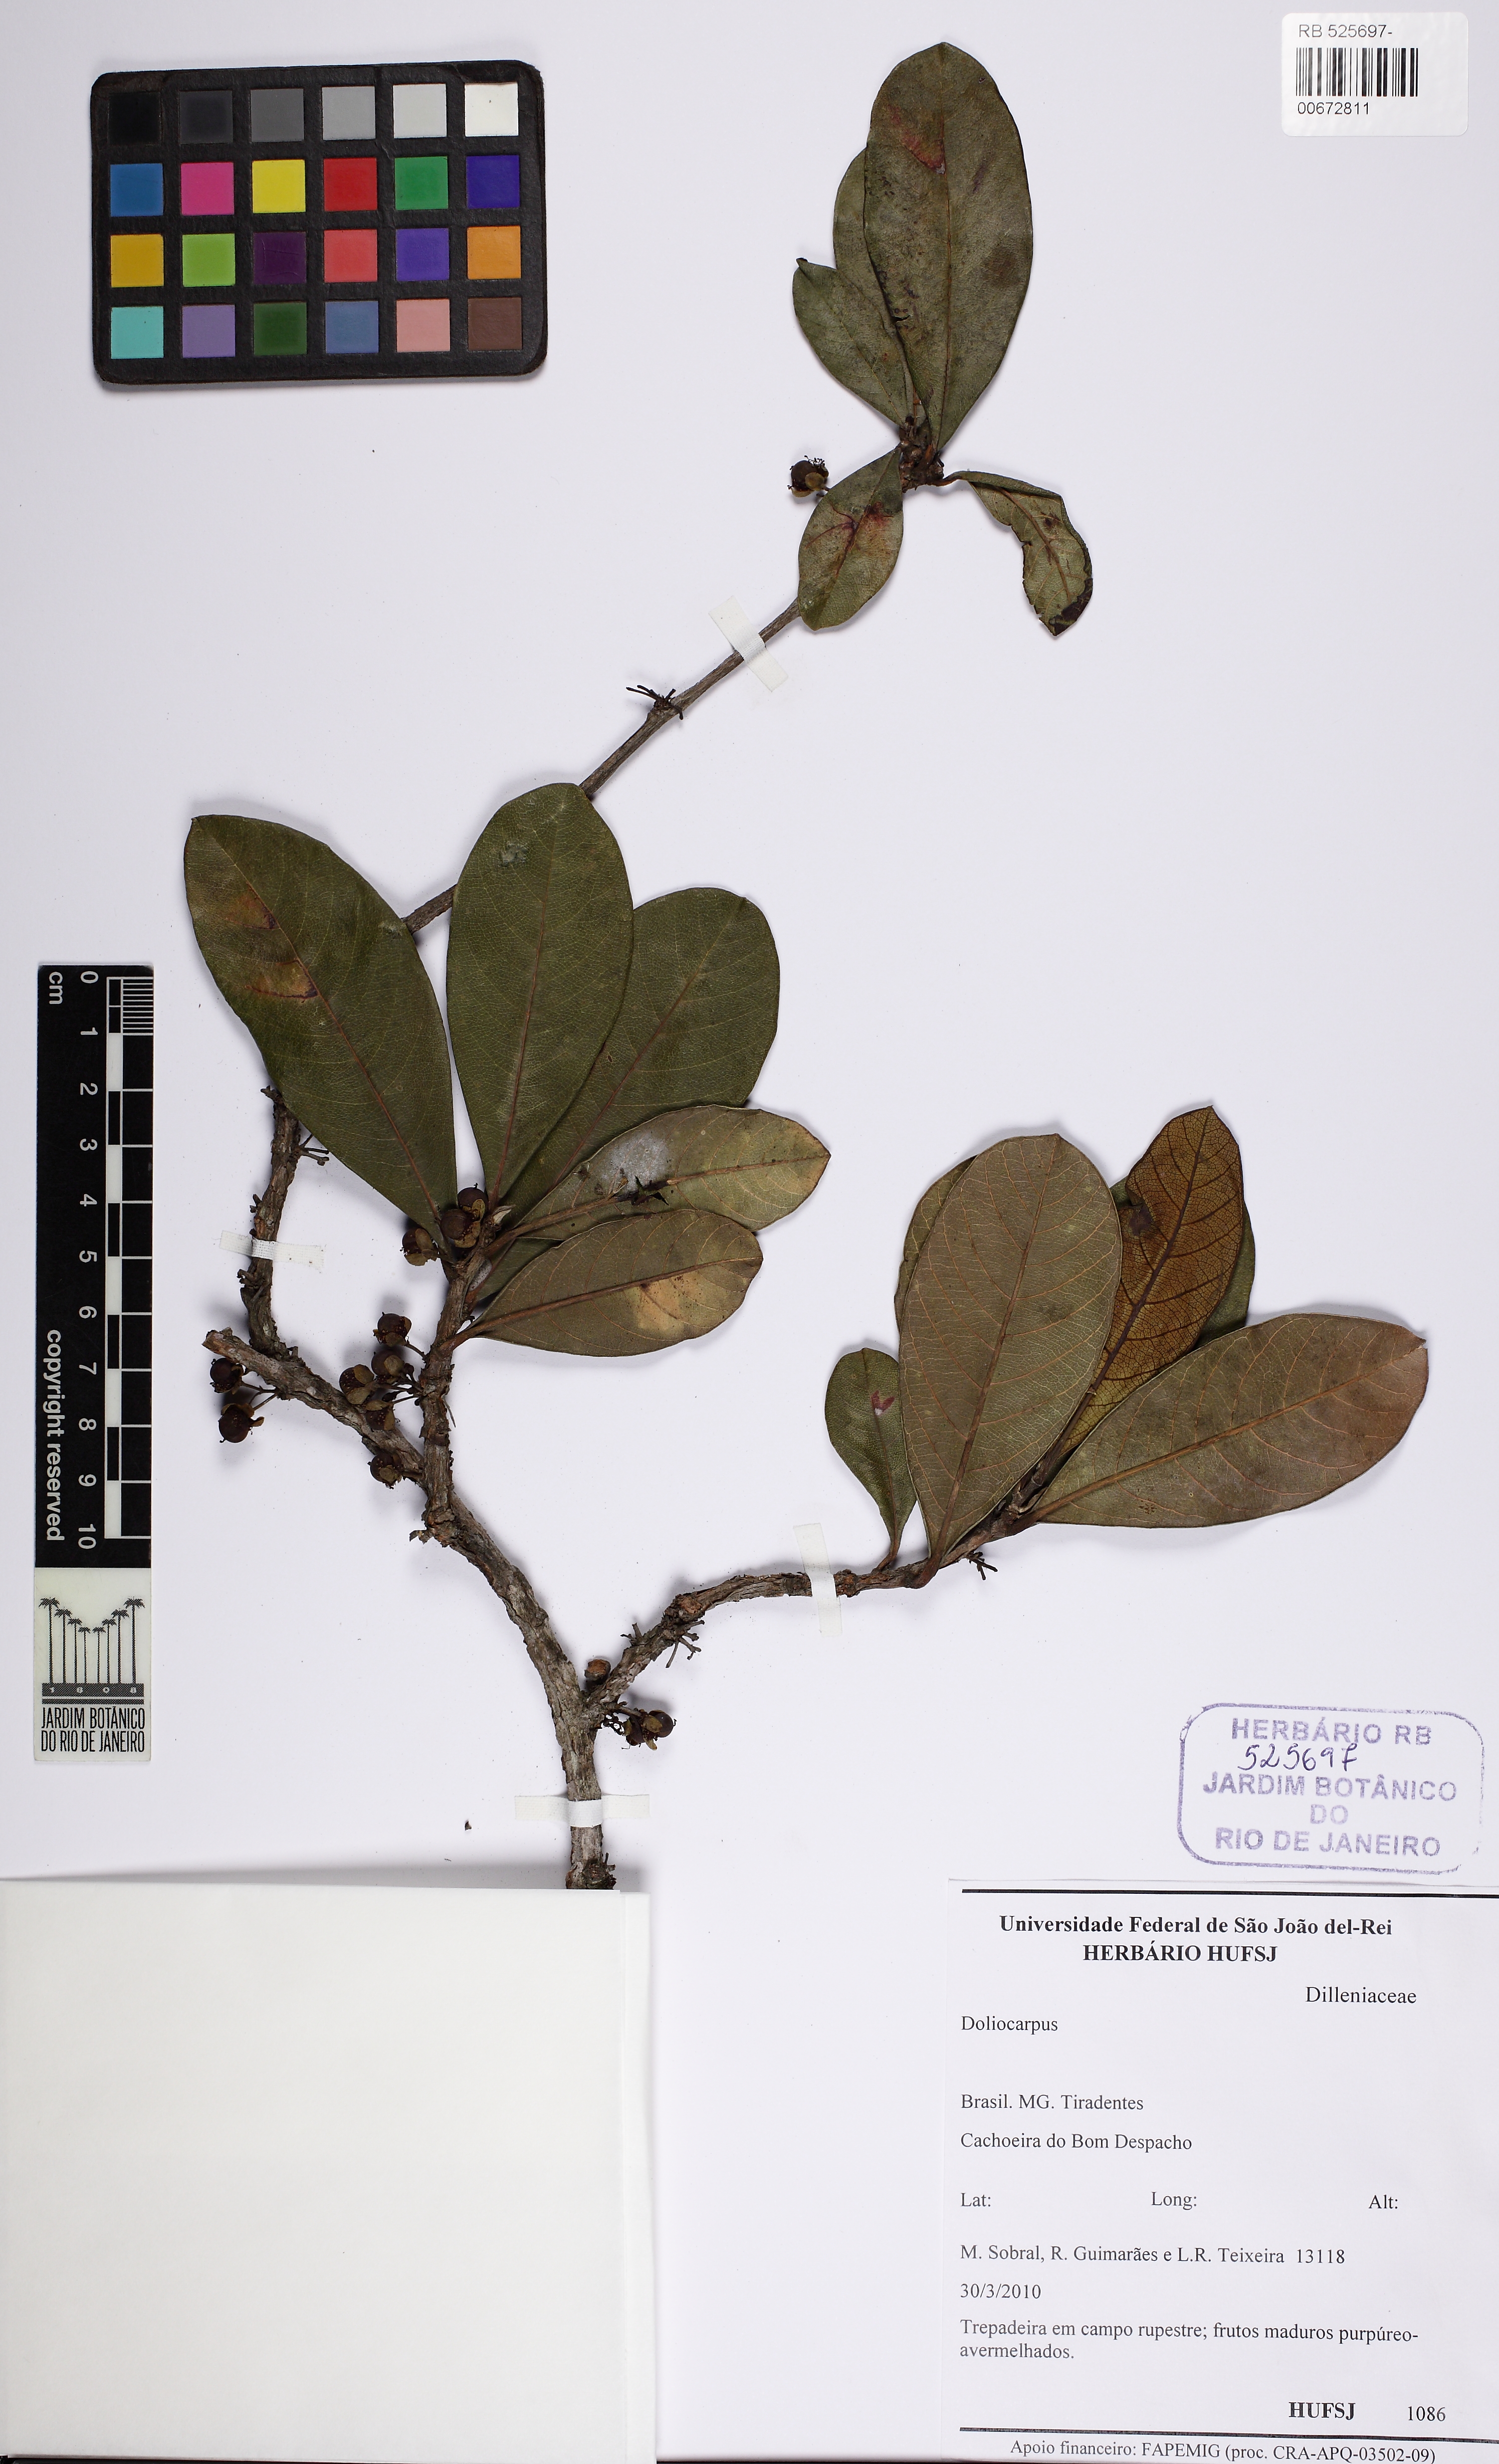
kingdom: Plantae
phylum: Tracheophyta
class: Magnoliopsida
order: Dilleniales
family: Dilleniaceae
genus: Doliocarpus
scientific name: Doliocarpus elegans
